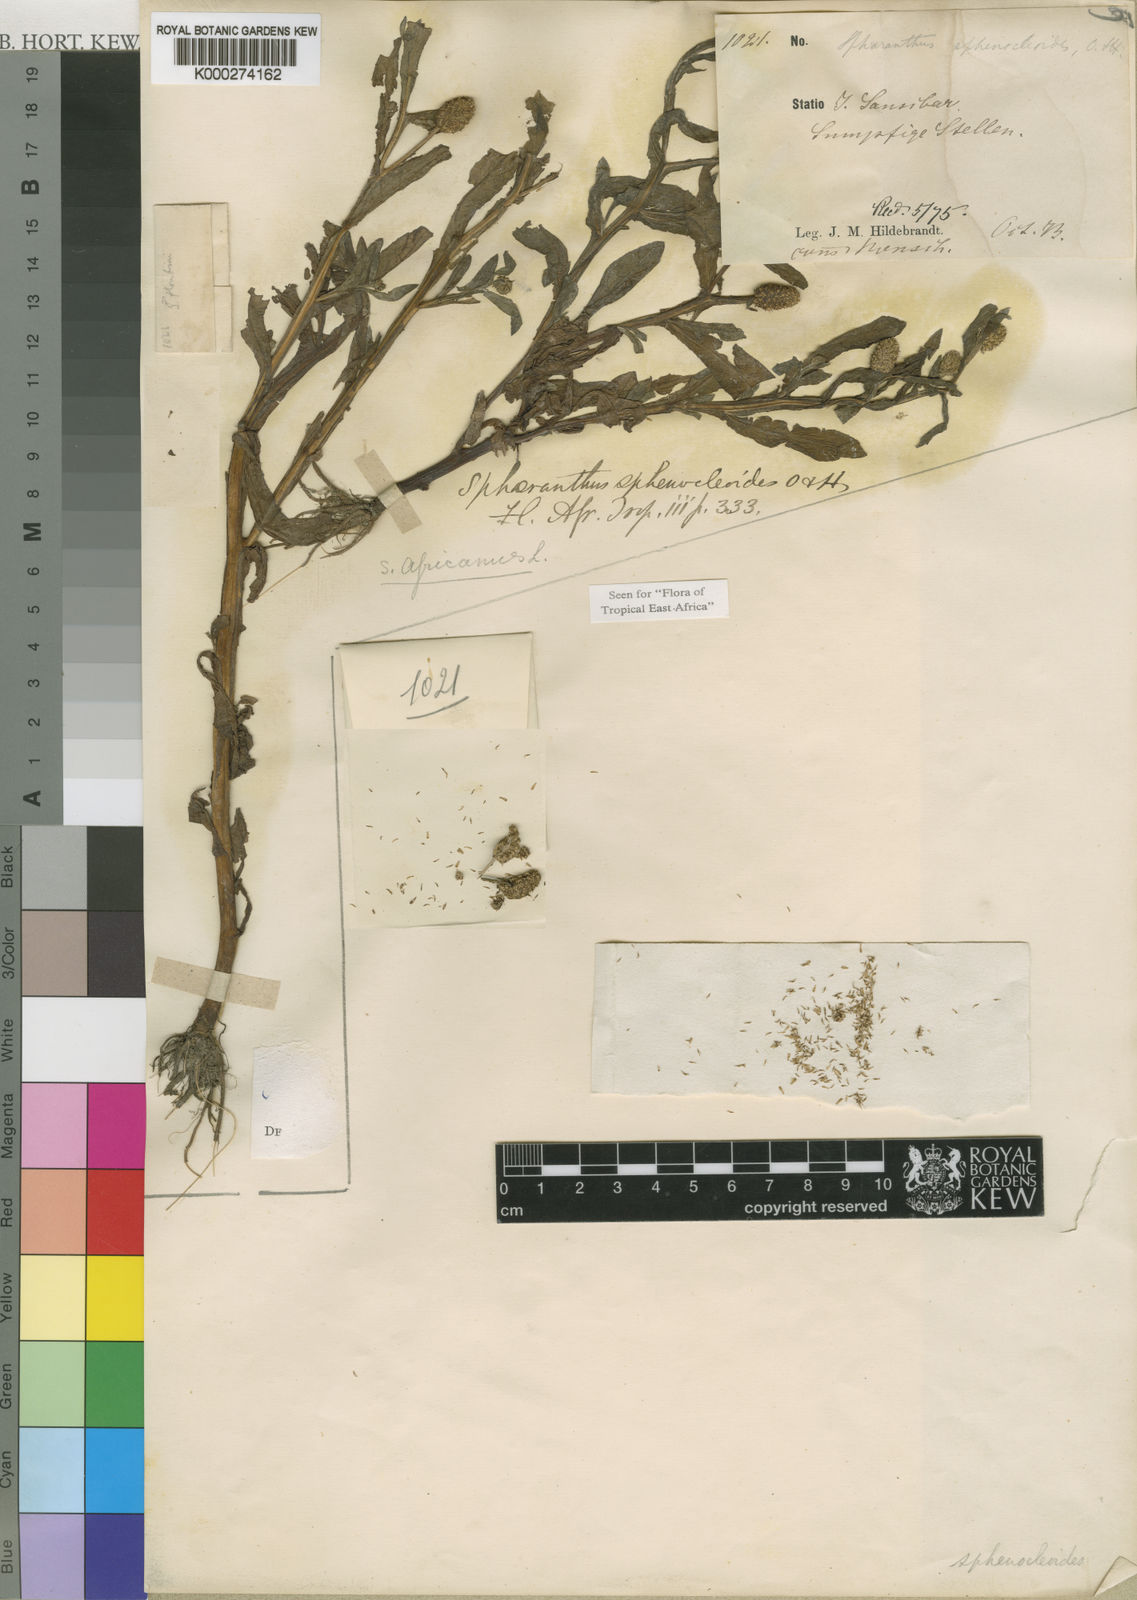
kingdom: Plantae
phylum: Tracheophyta
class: Magnoliopsida
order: Asterales
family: Asteraceae
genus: Sphaeranthus
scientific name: Sphaeranthus africanus
